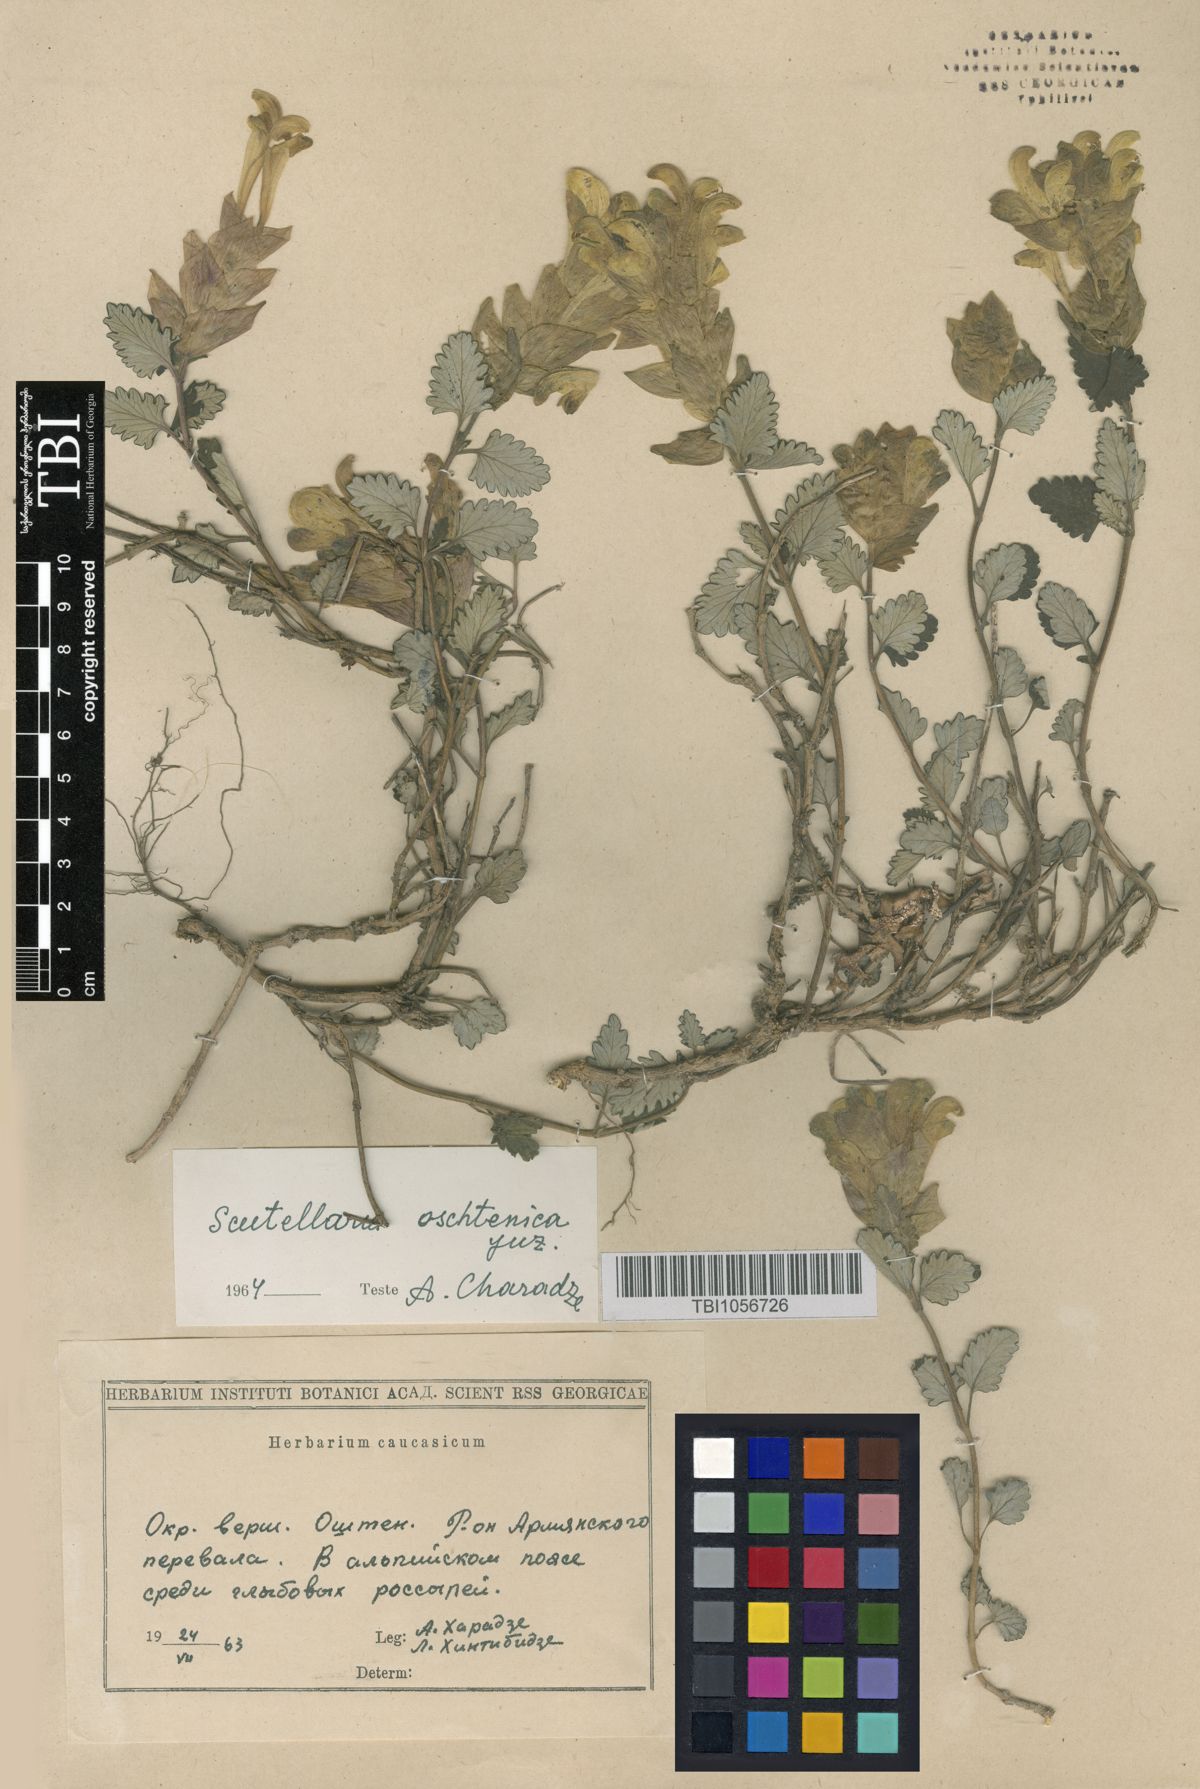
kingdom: Plantae
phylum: Tracheophyta
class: Magnoliopsida
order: Lamiales
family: Lamiaceae
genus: Scutellaria
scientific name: Scutellaria oschtenica
